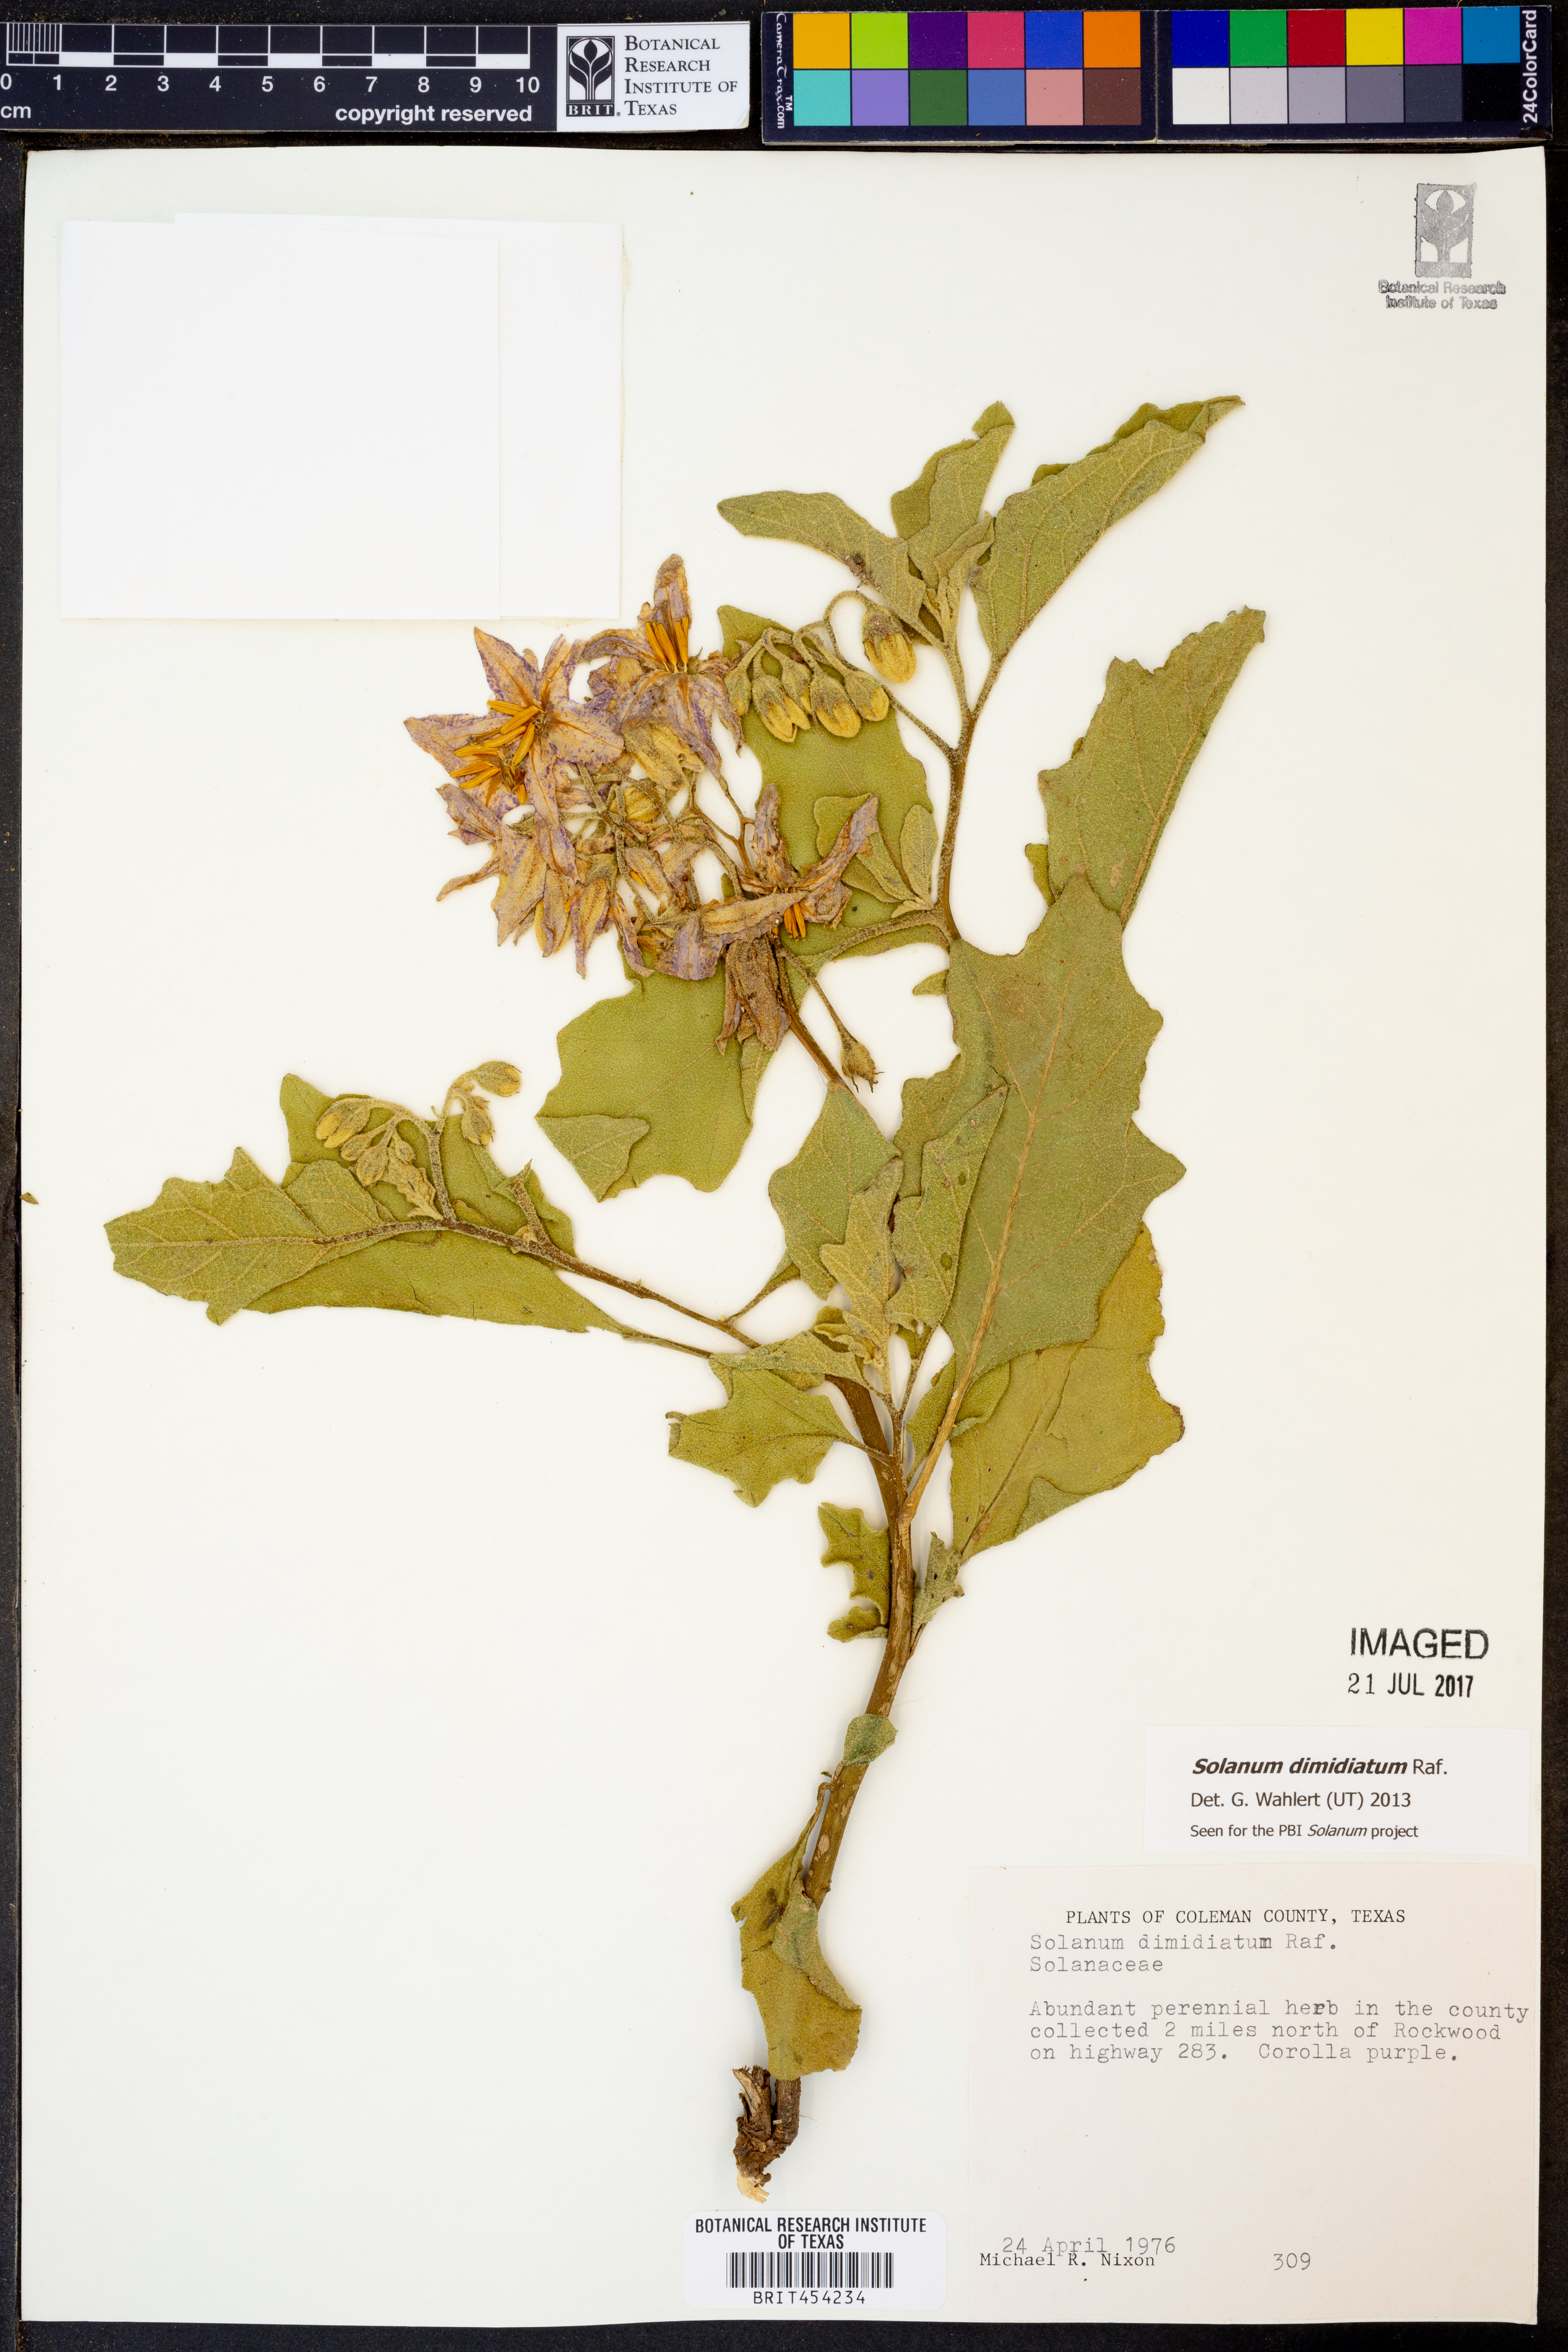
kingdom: Plantae
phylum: Tracheophyta
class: Magnoliopsida
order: Solanales
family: Solanaceae
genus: Solanum
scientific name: Solanum dimidiatum
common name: Carolina horse-nettle
